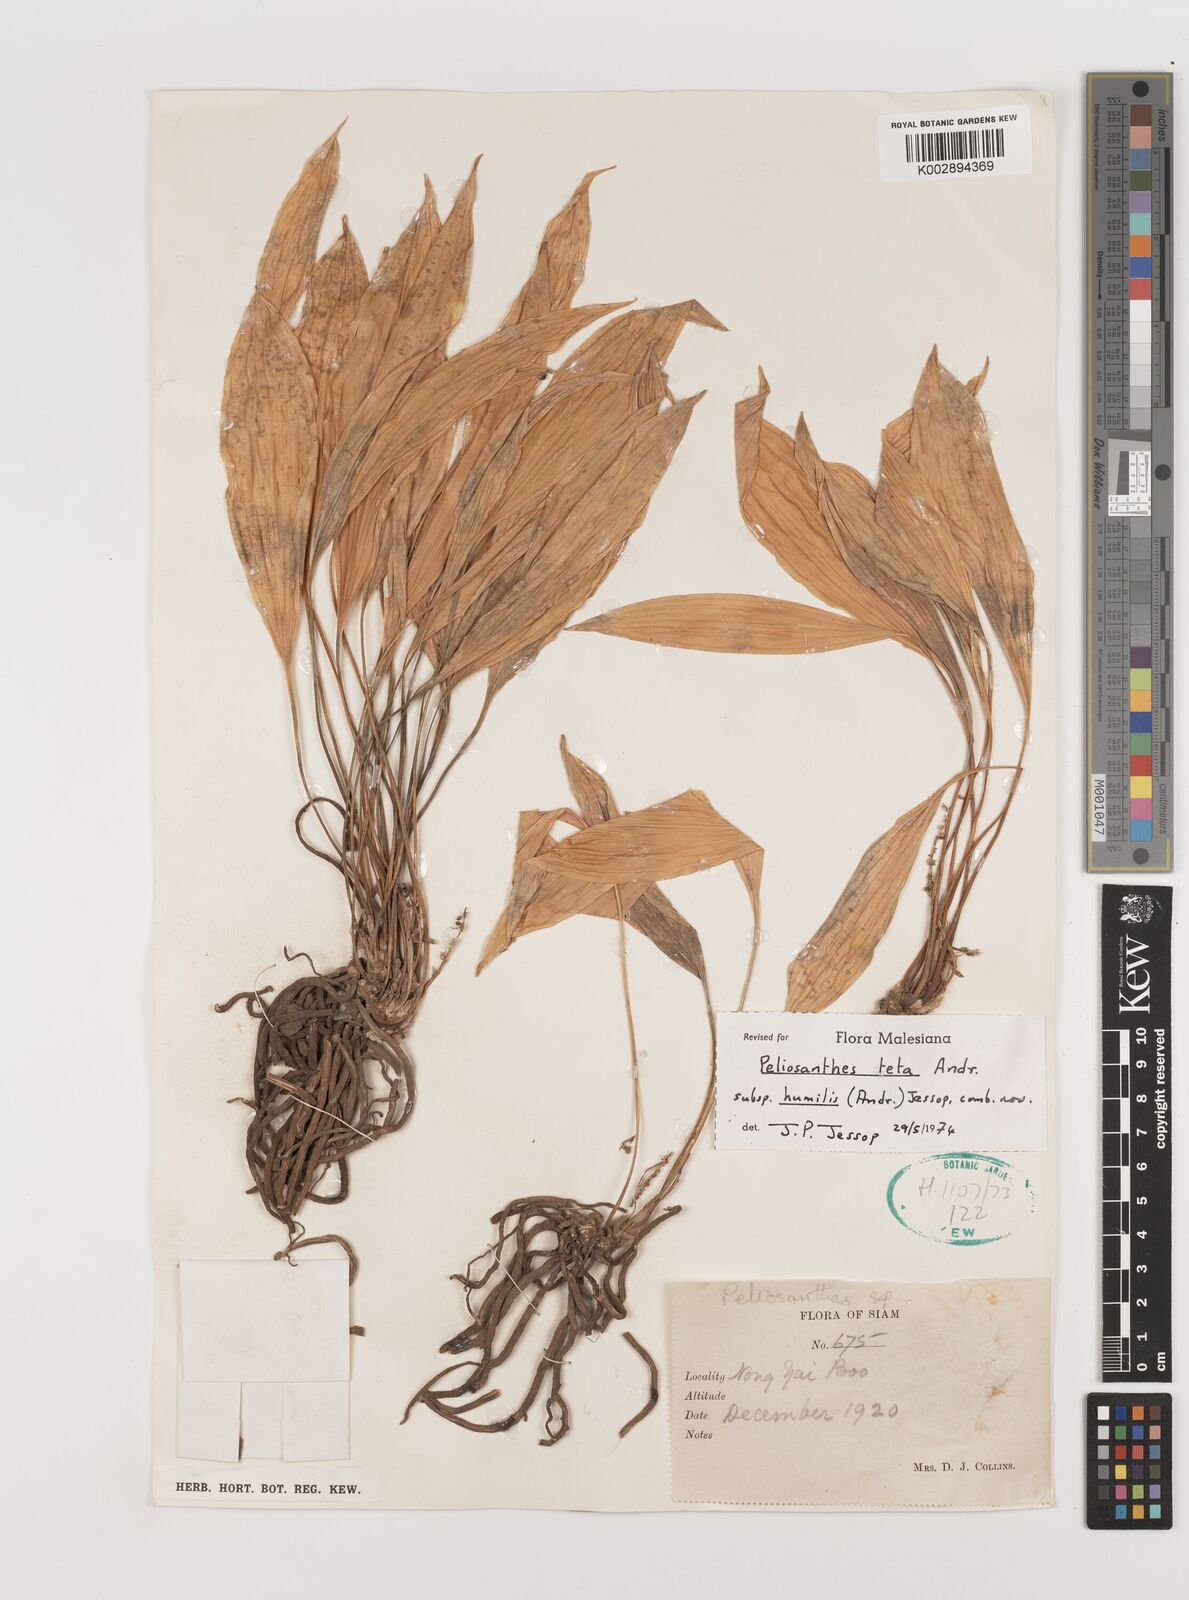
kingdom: Plantae
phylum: Tracheophyta
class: Liliopsida
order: Asparagales
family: Asparagaceae
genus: Peliosanthes
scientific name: Peliosanthes teta
